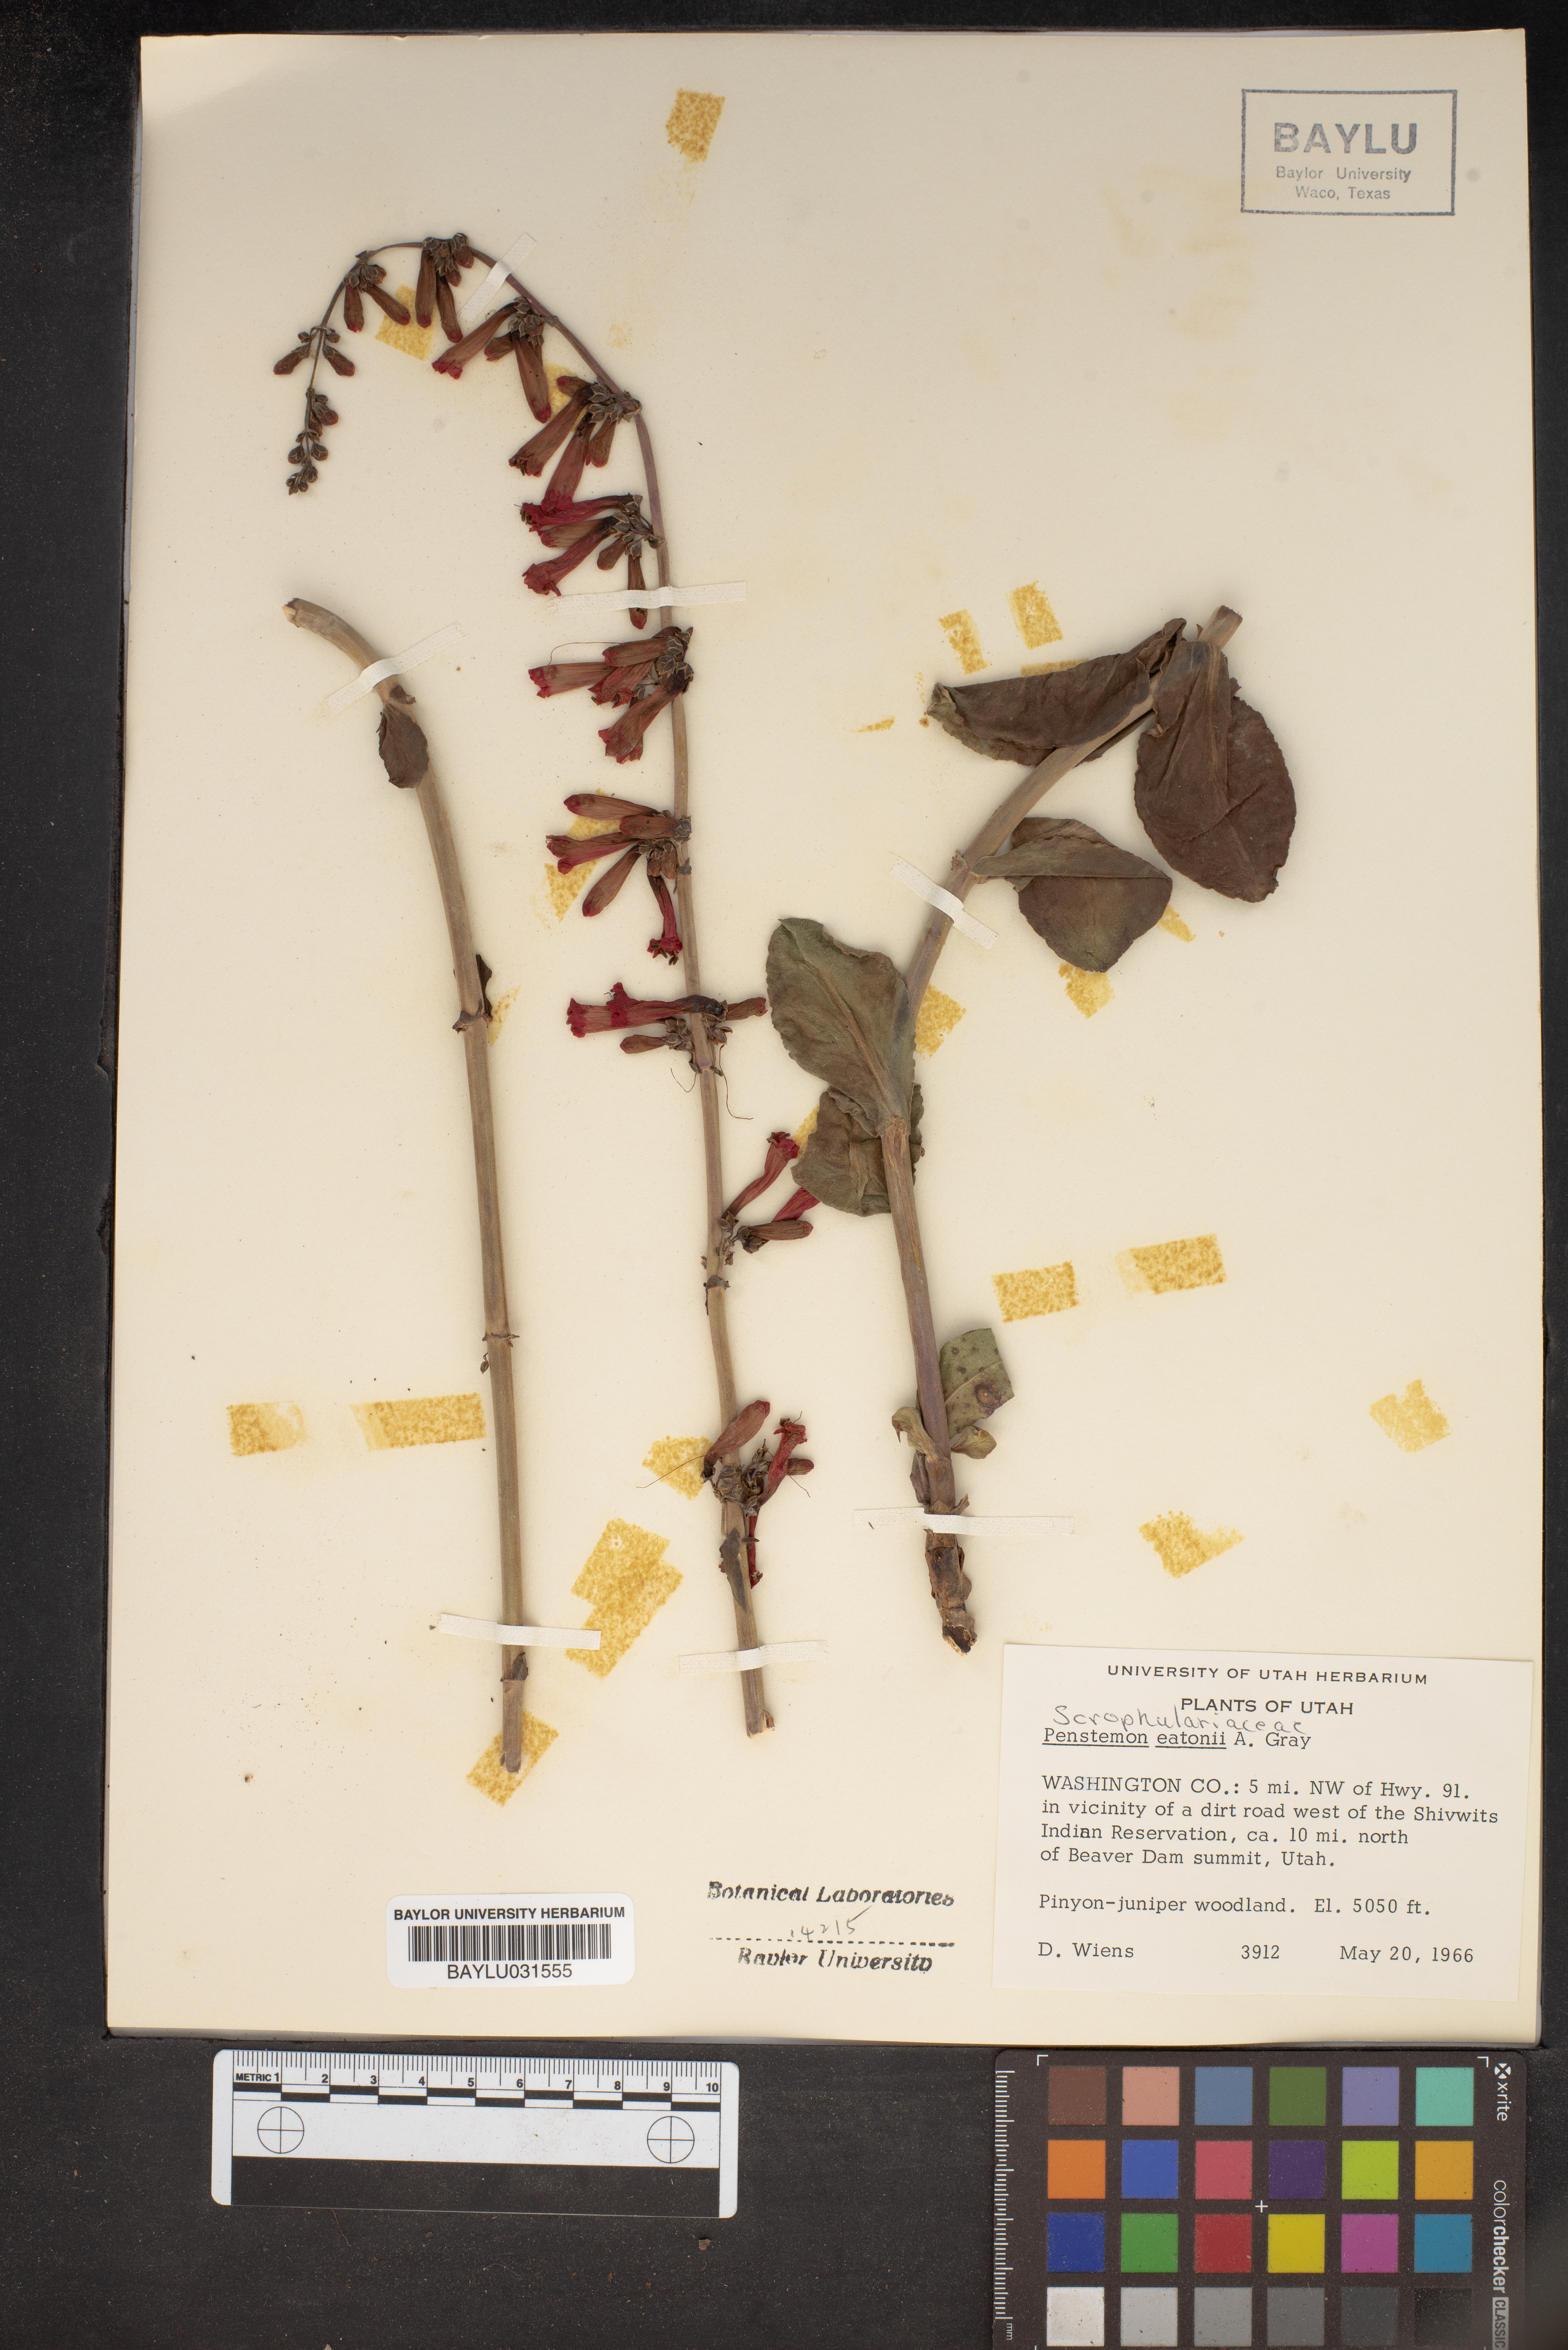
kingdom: Plantae
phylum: Tracheophyta
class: Magnoliopsida
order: Lamiales
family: Plantaginaceae
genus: Penstemon
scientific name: Penstemon eatonii
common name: Eaton's penstemon
